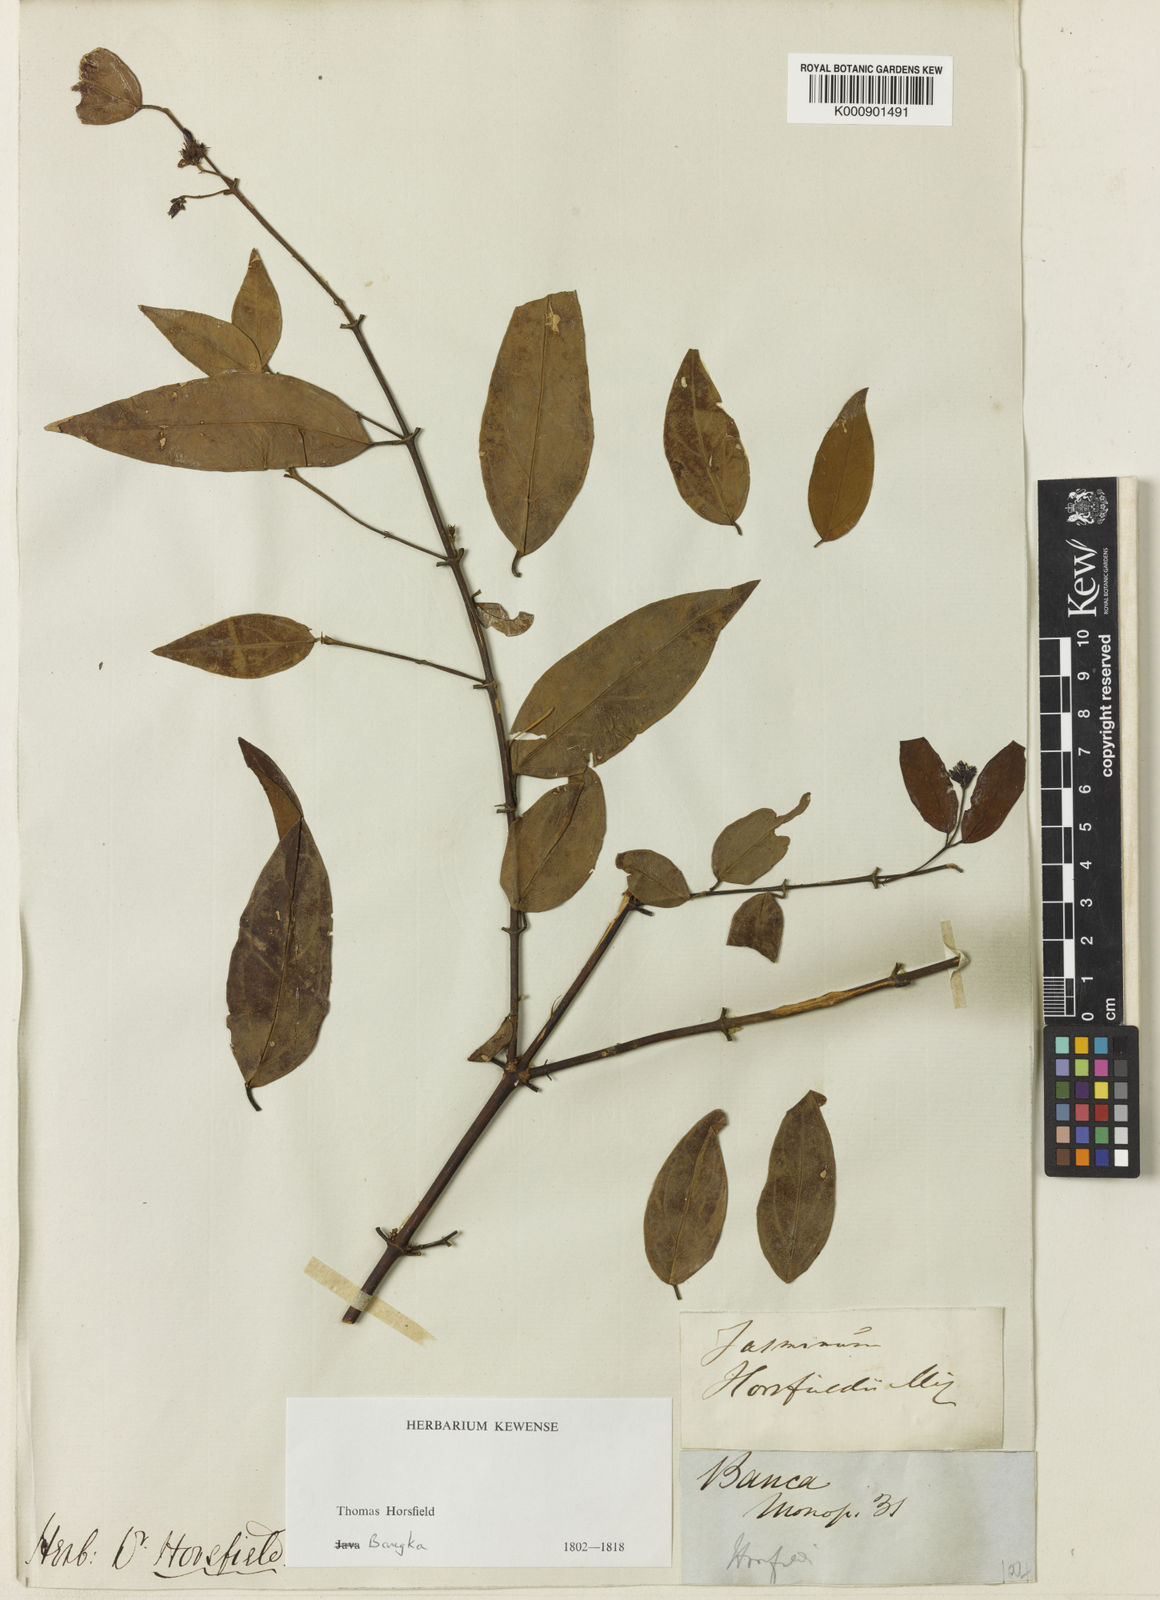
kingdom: Plantae
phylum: Tracheophyta
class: Magnoliopsida
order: Lamiales
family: Oleaceae
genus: Jasminum
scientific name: Jasminum elongatum
